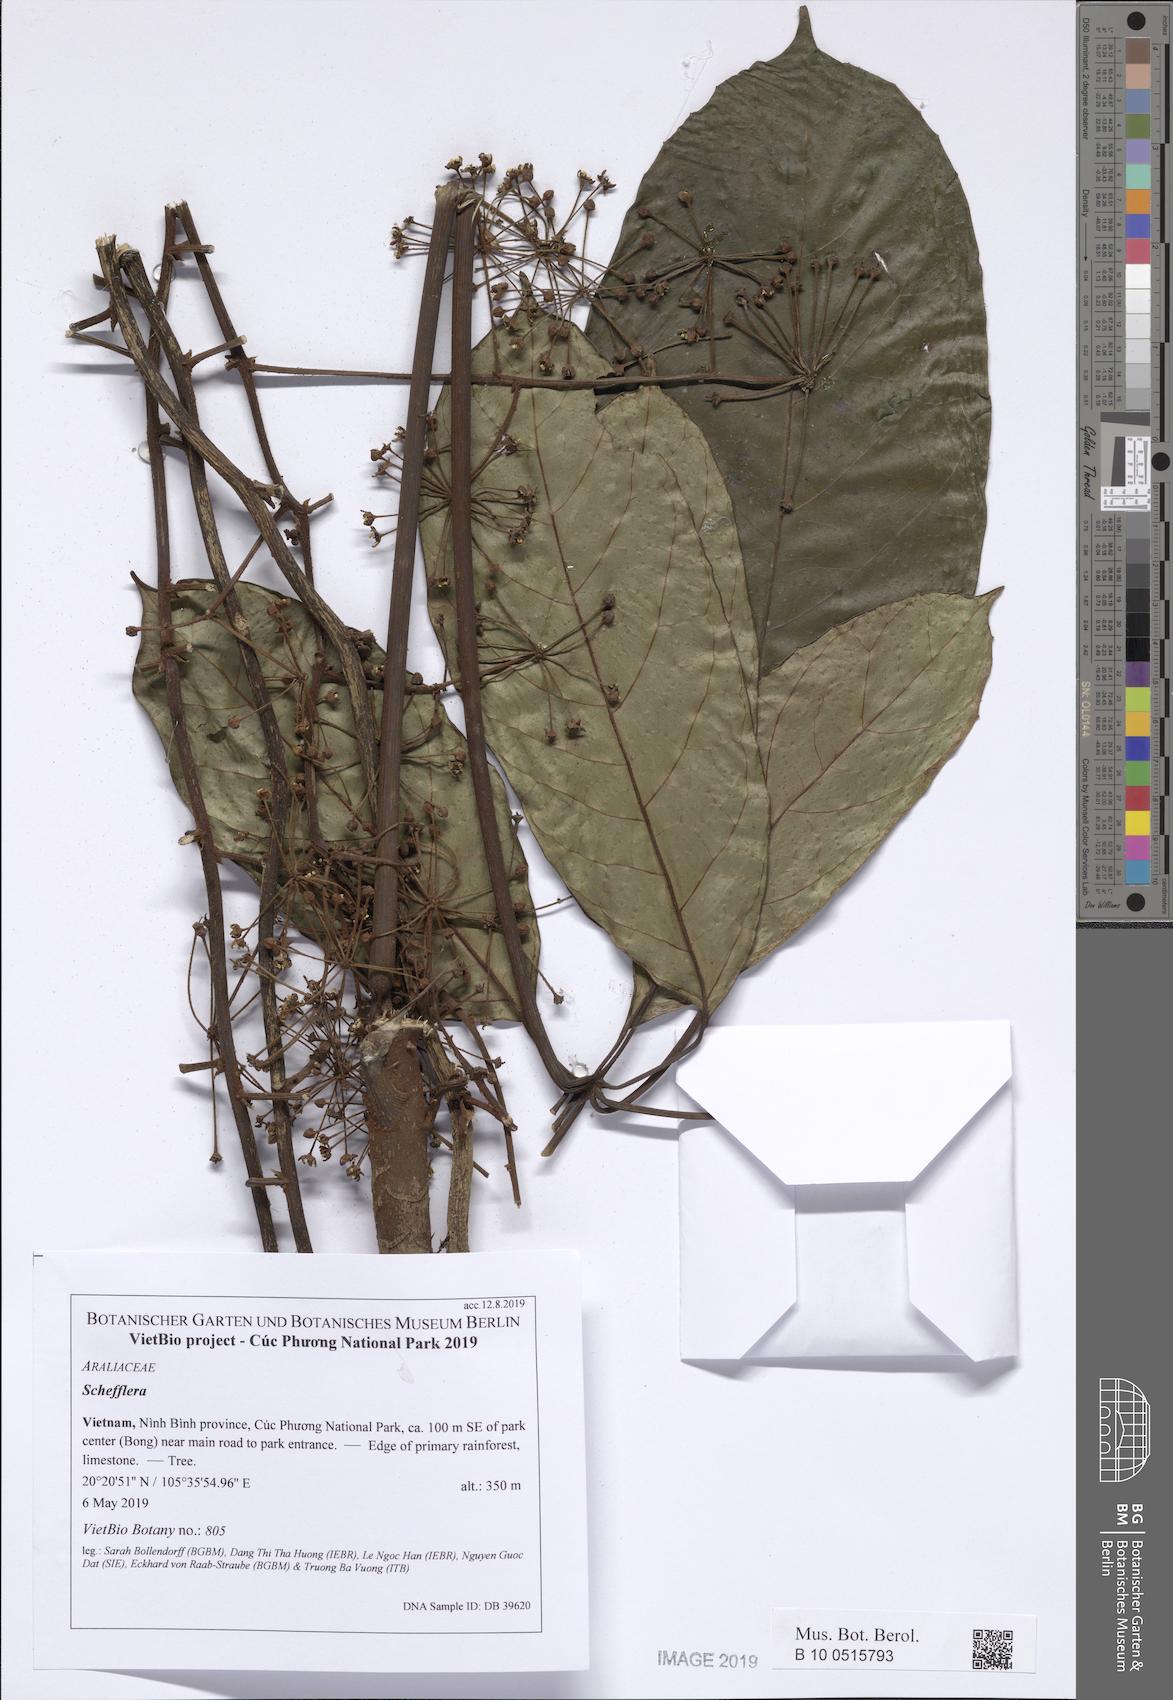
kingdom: Plantae
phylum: Tracheophyta
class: Magnoliopsida
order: Apiales
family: Araliaceae
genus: Schefflera
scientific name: Schefflera
